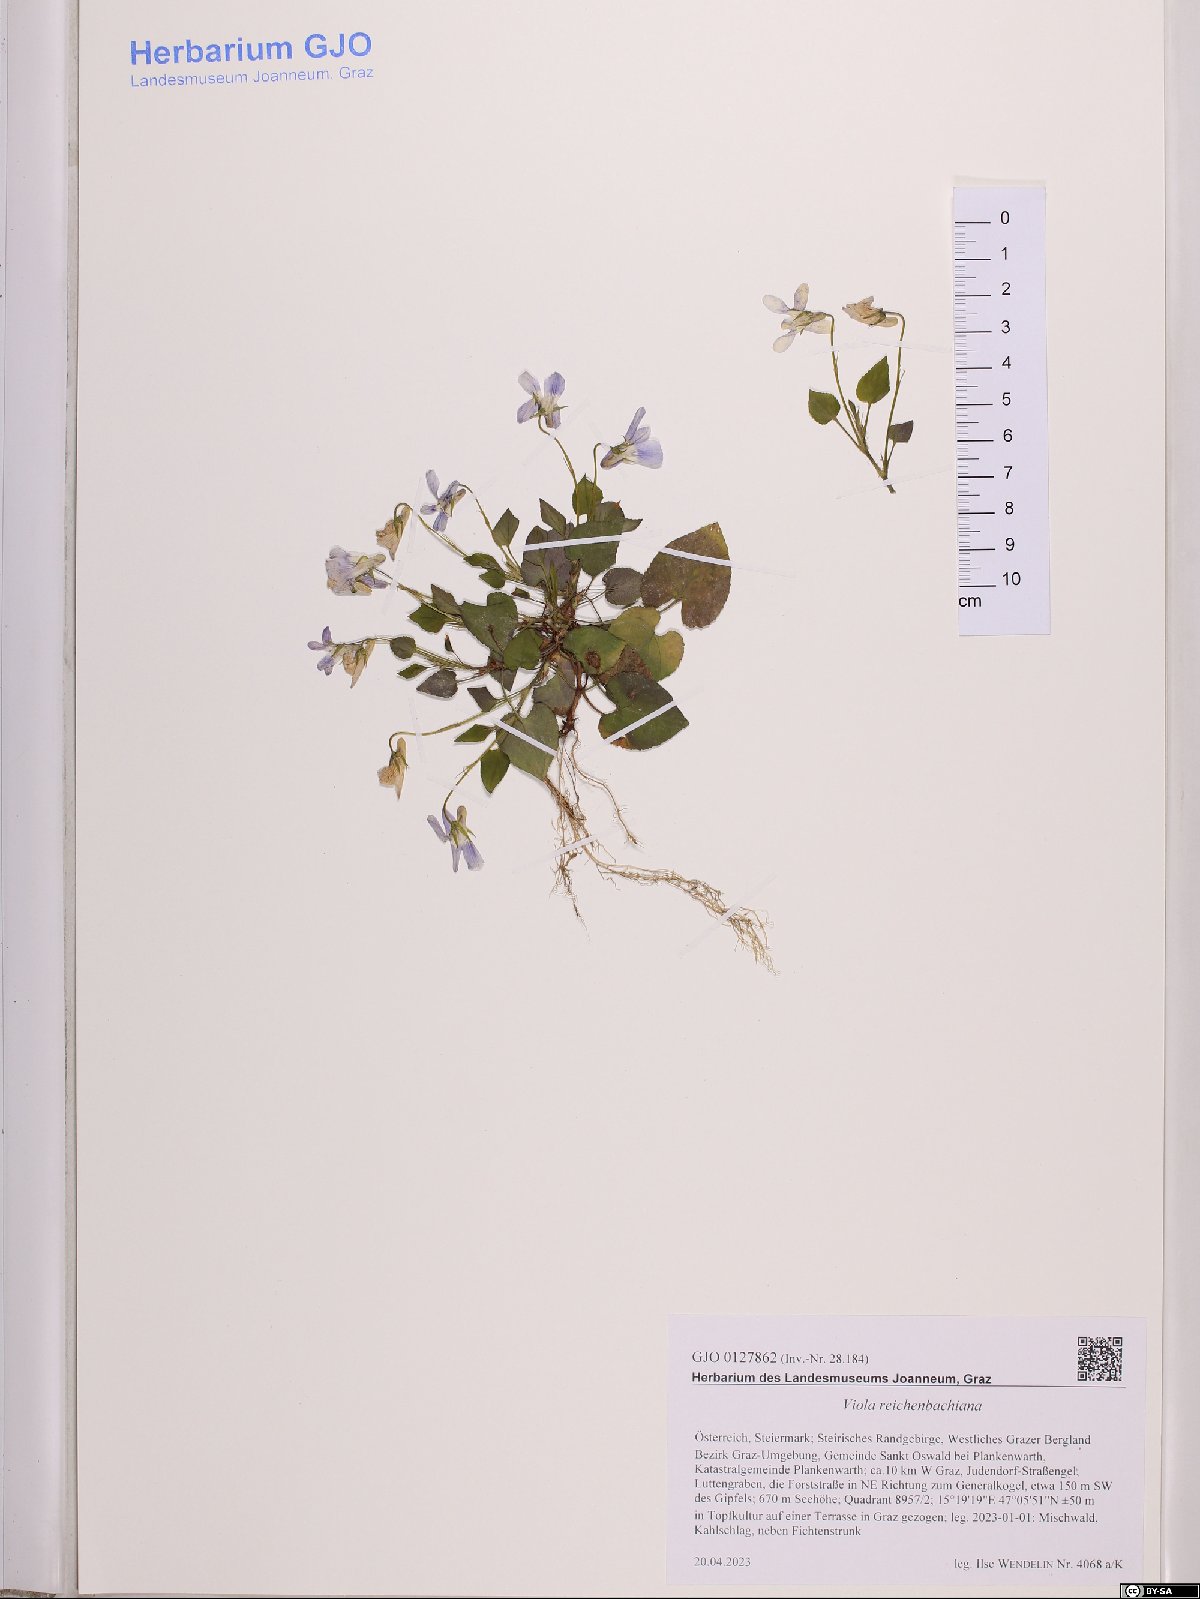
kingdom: Plantae
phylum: Tracheophyta
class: Magnoliopsida
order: Malpighiales
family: Violaceae
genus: Viola
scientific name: Viola reichenbachiana
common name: Early dog-violet
